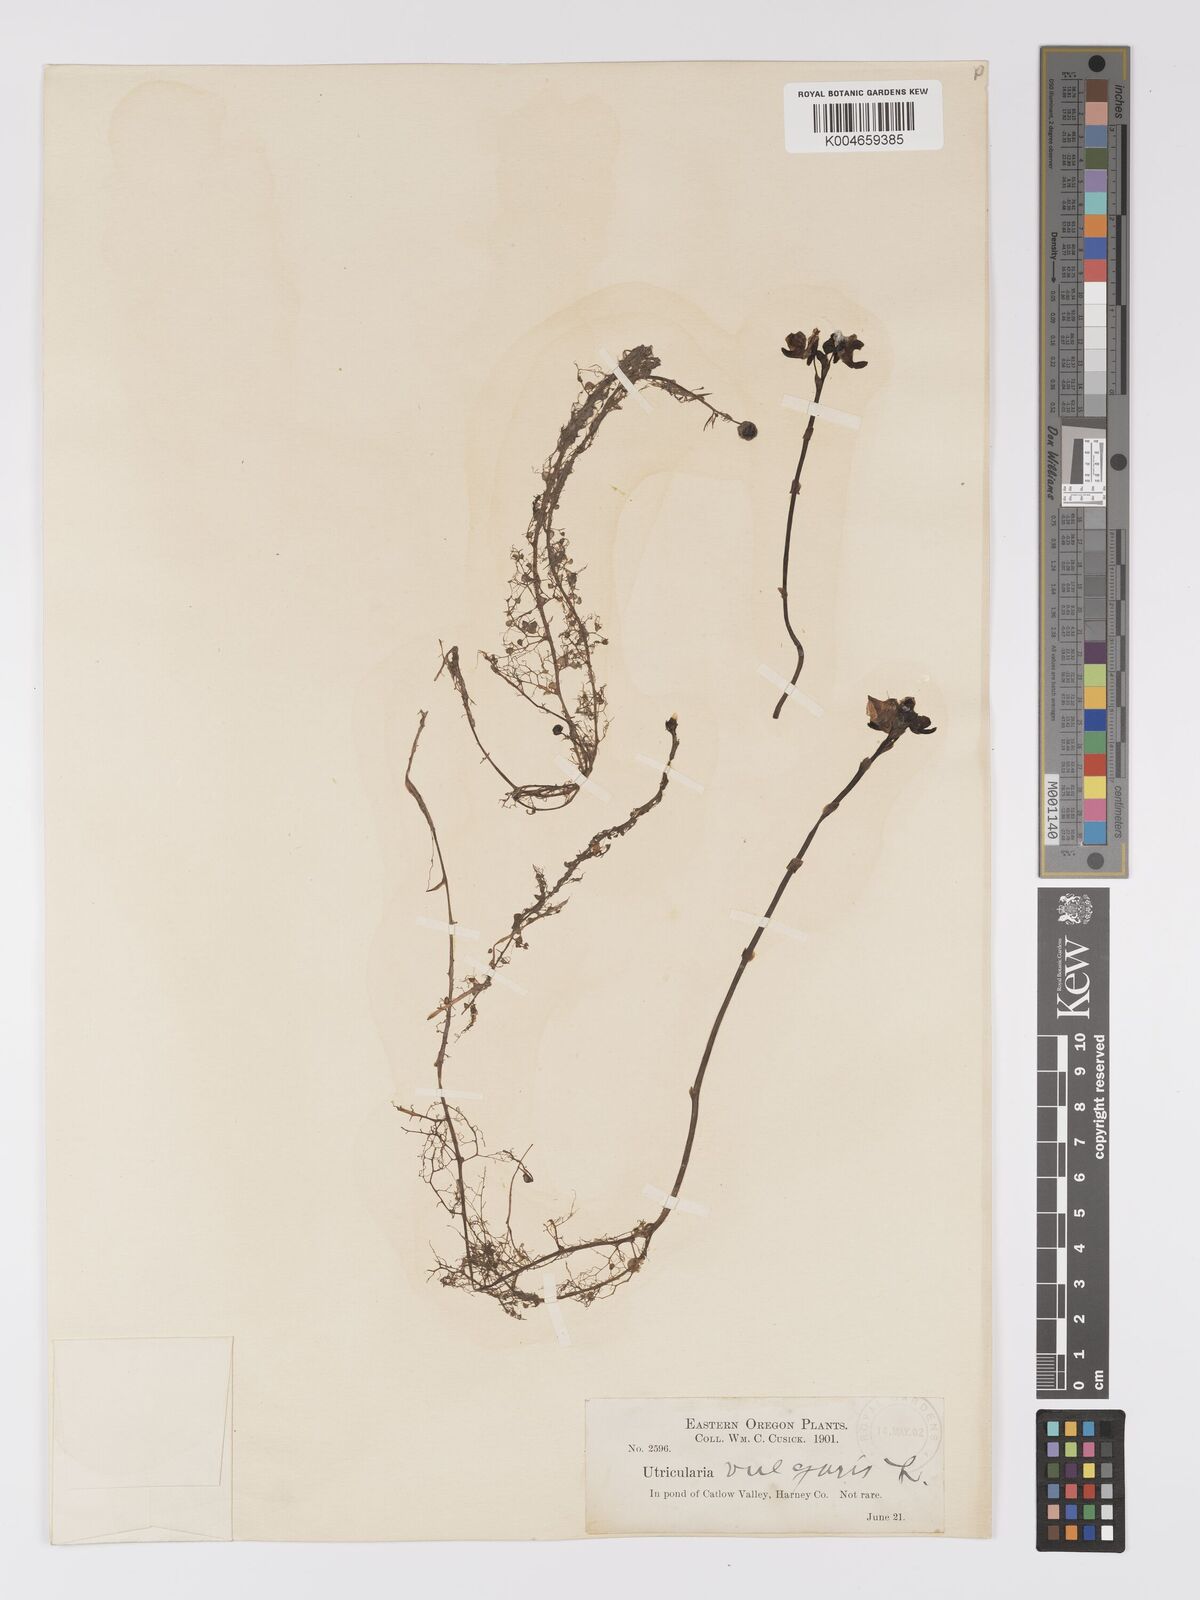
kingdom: Plantae
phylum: Tracheophyta
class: Magnoliopsida
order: Lamiales
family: Lentibulariaceae
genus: Utricularia
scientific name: Utricularia macrorhiza
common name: Common bladderwort
